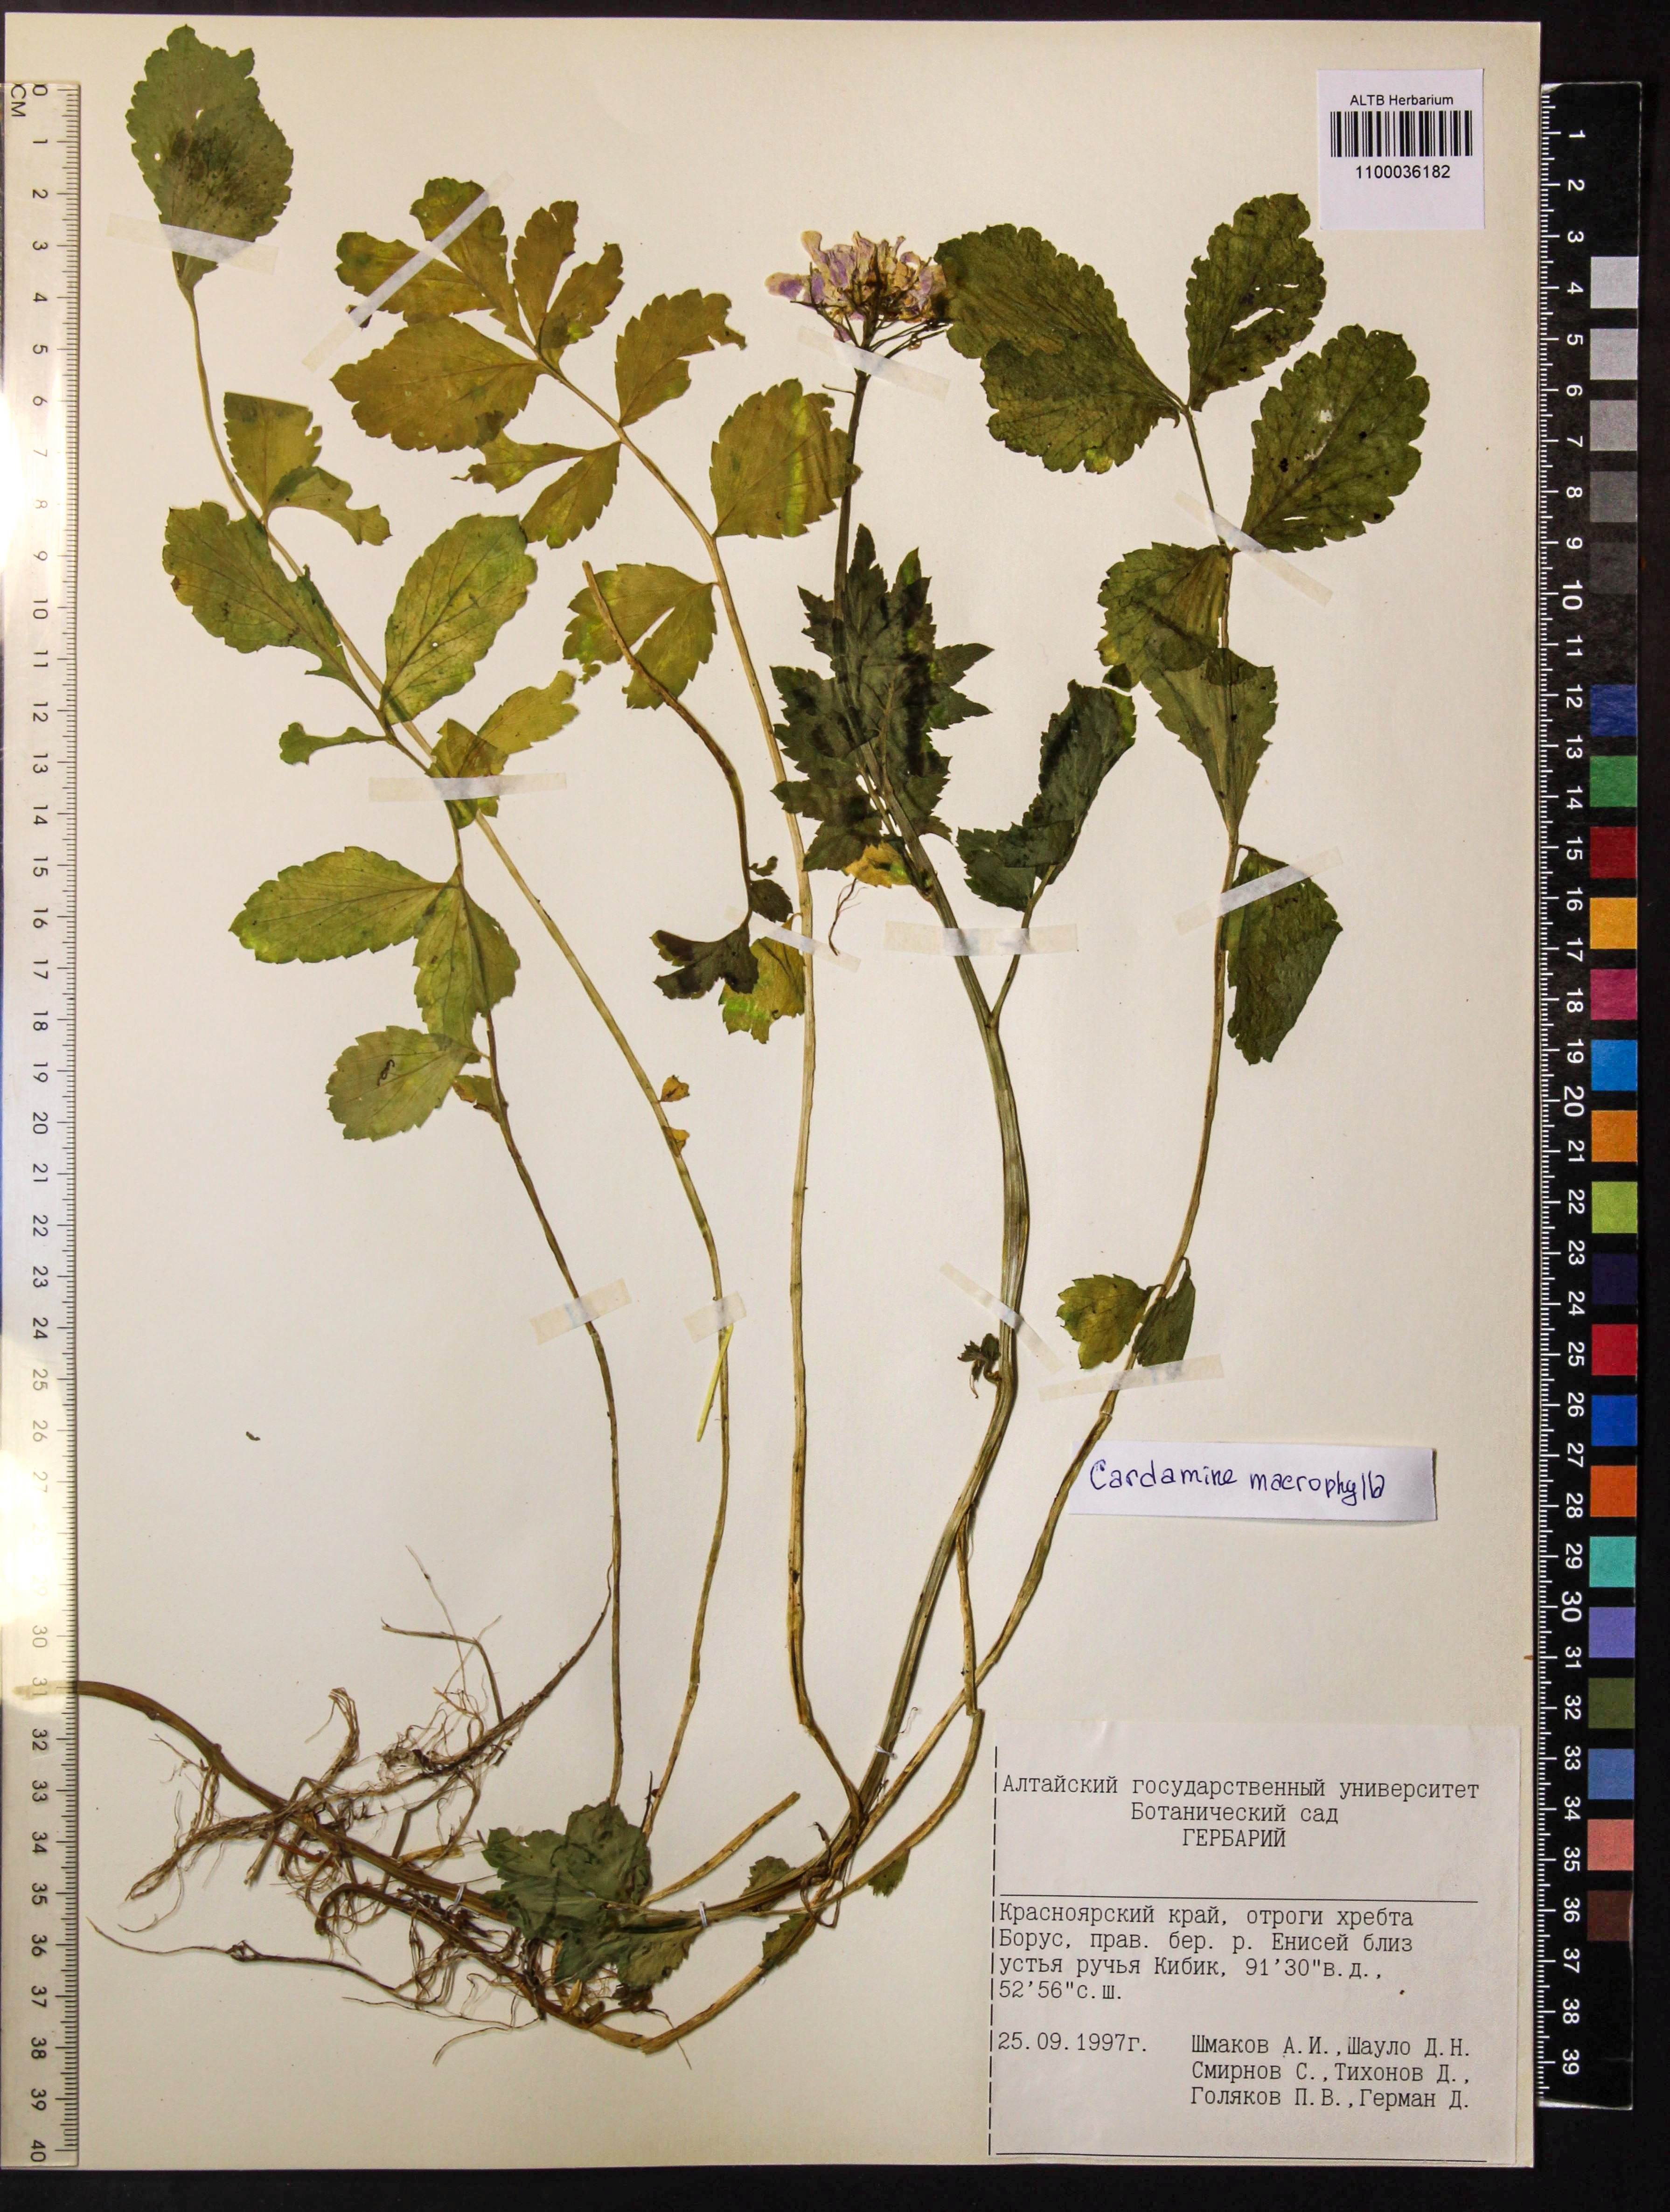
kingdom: Plantae
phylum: Tracheophyta
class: Magnoliopsida
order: Brassicales
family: Brassicaceae
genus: Cardamine
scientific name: Cardamine macrophylla
